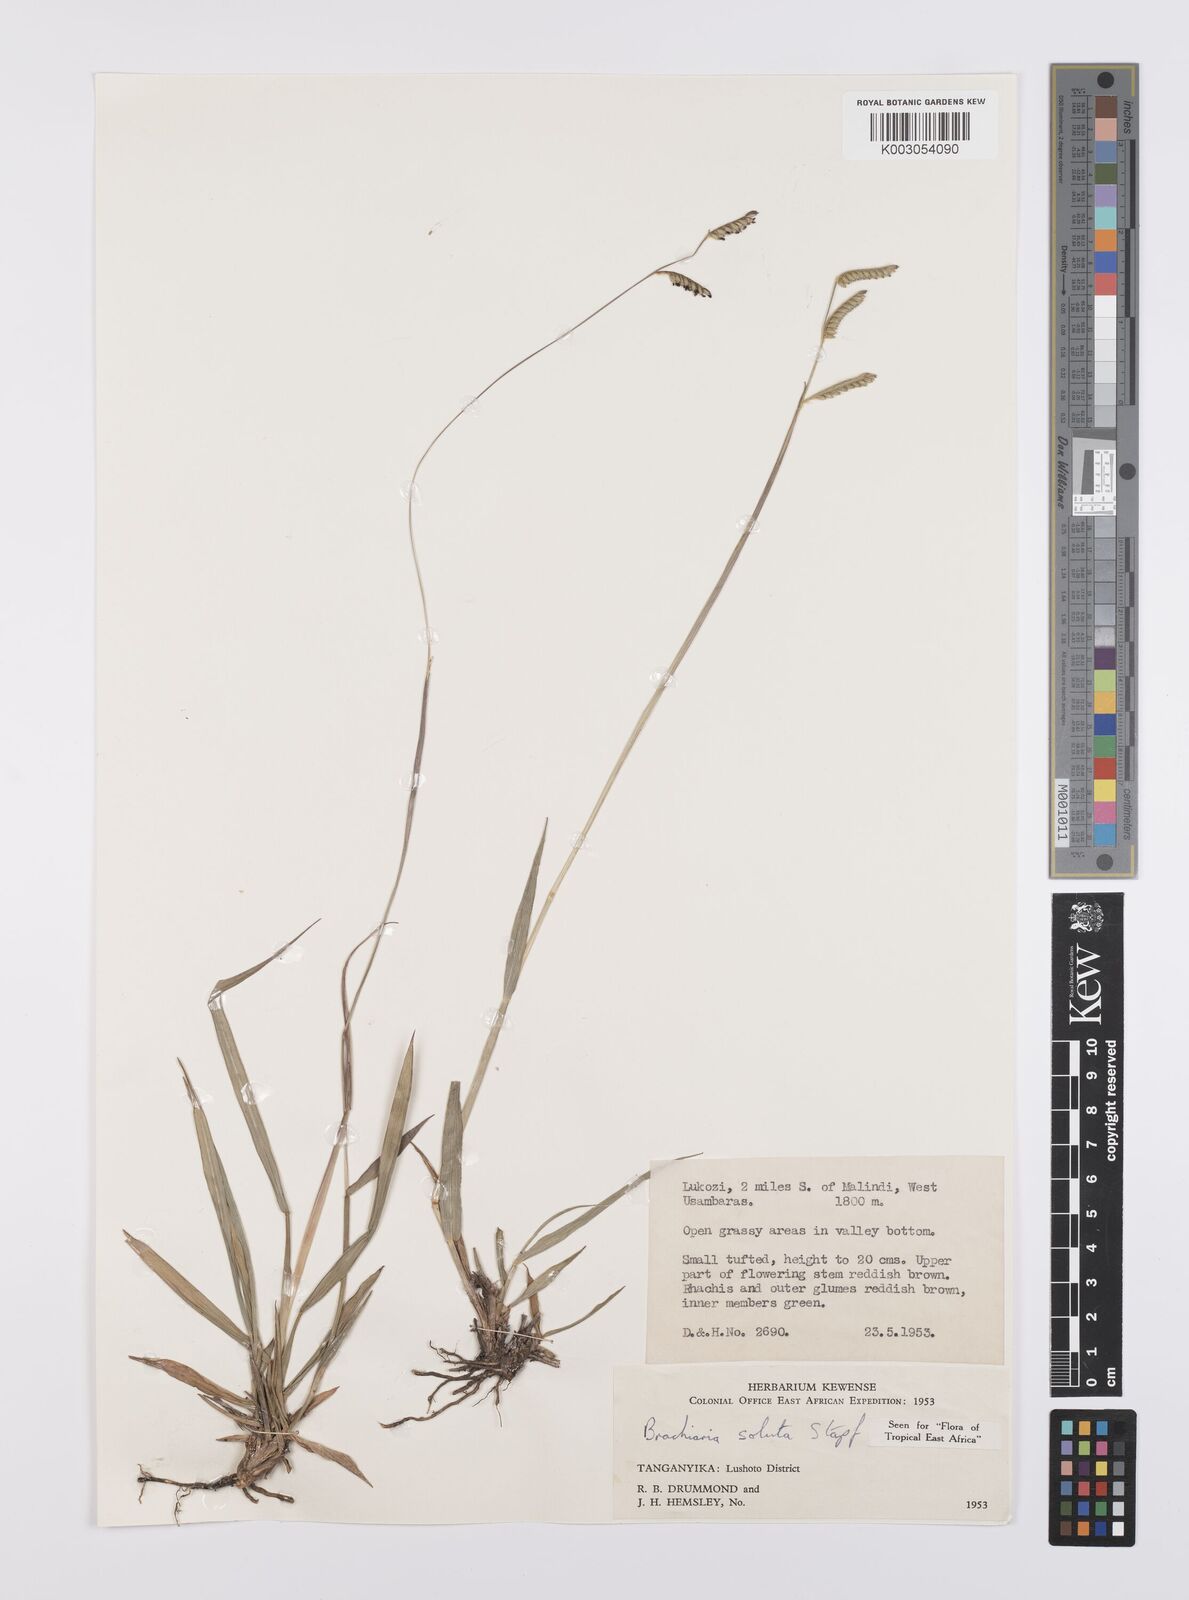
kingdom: Plantae
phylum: Tracheophyta
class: Liliopsida
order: Poales
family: Poaceae
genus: Urochloa
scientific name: Urochloa jubata
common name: Buffalograss
